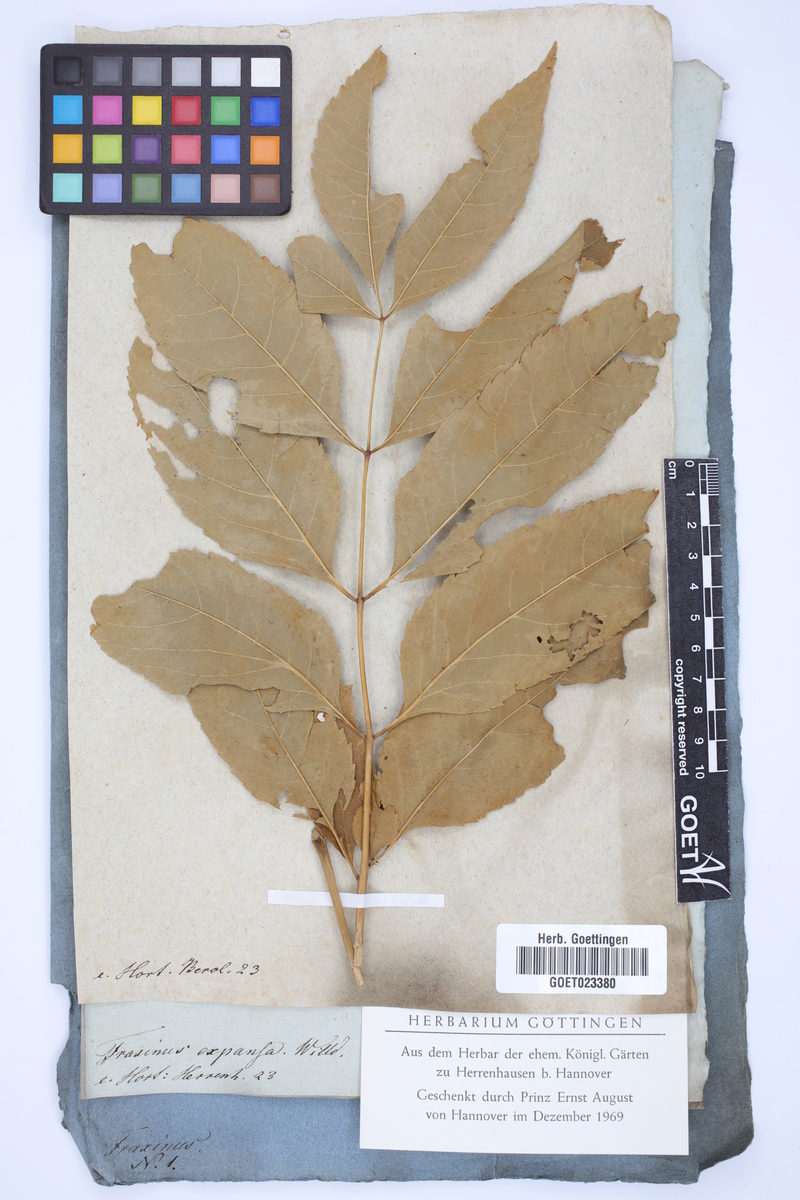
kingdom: Plantae
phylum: Tracheophyta
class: Magnoliopsida
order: Lamiales
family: Oleaceae
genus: Fraxinus
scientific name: Fraxinus pennsylvanica
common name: Green ash
